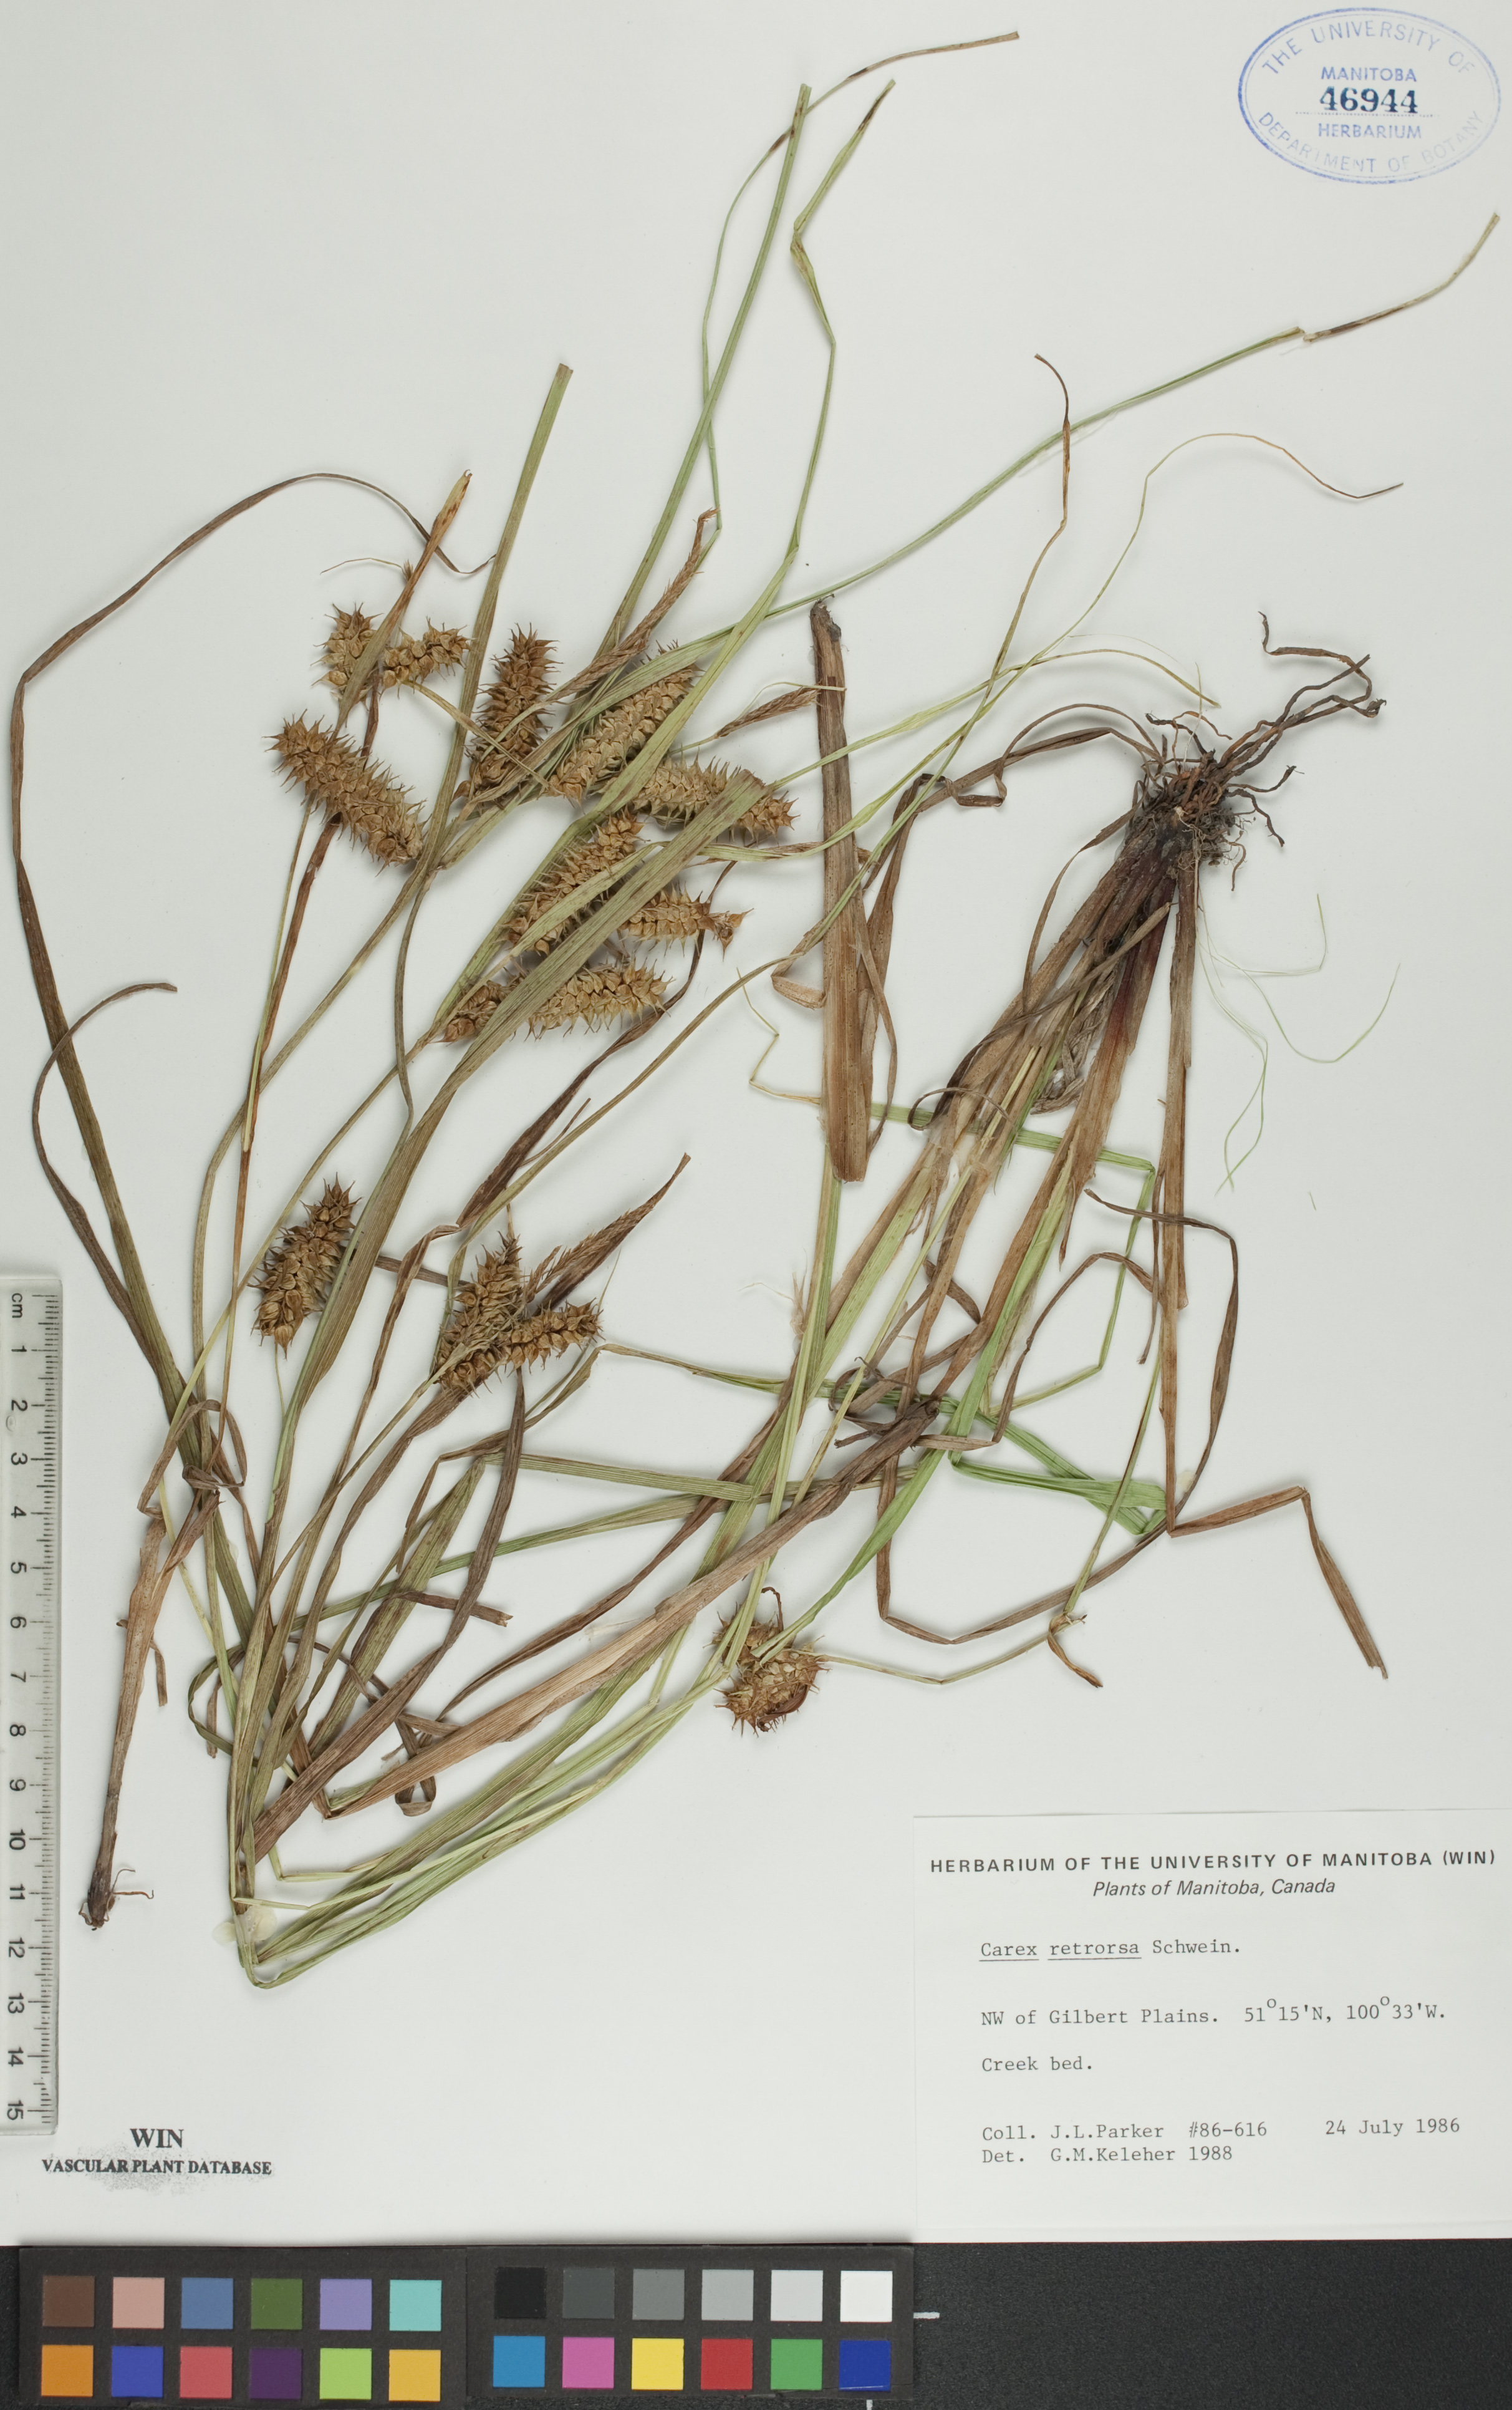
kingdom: Plantae
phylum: Tracheophyta
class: Liliopsida
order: Poales
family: Cyperaceae
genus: Carex
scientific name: Carex retrorsa
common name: Knot-sheath sedge
